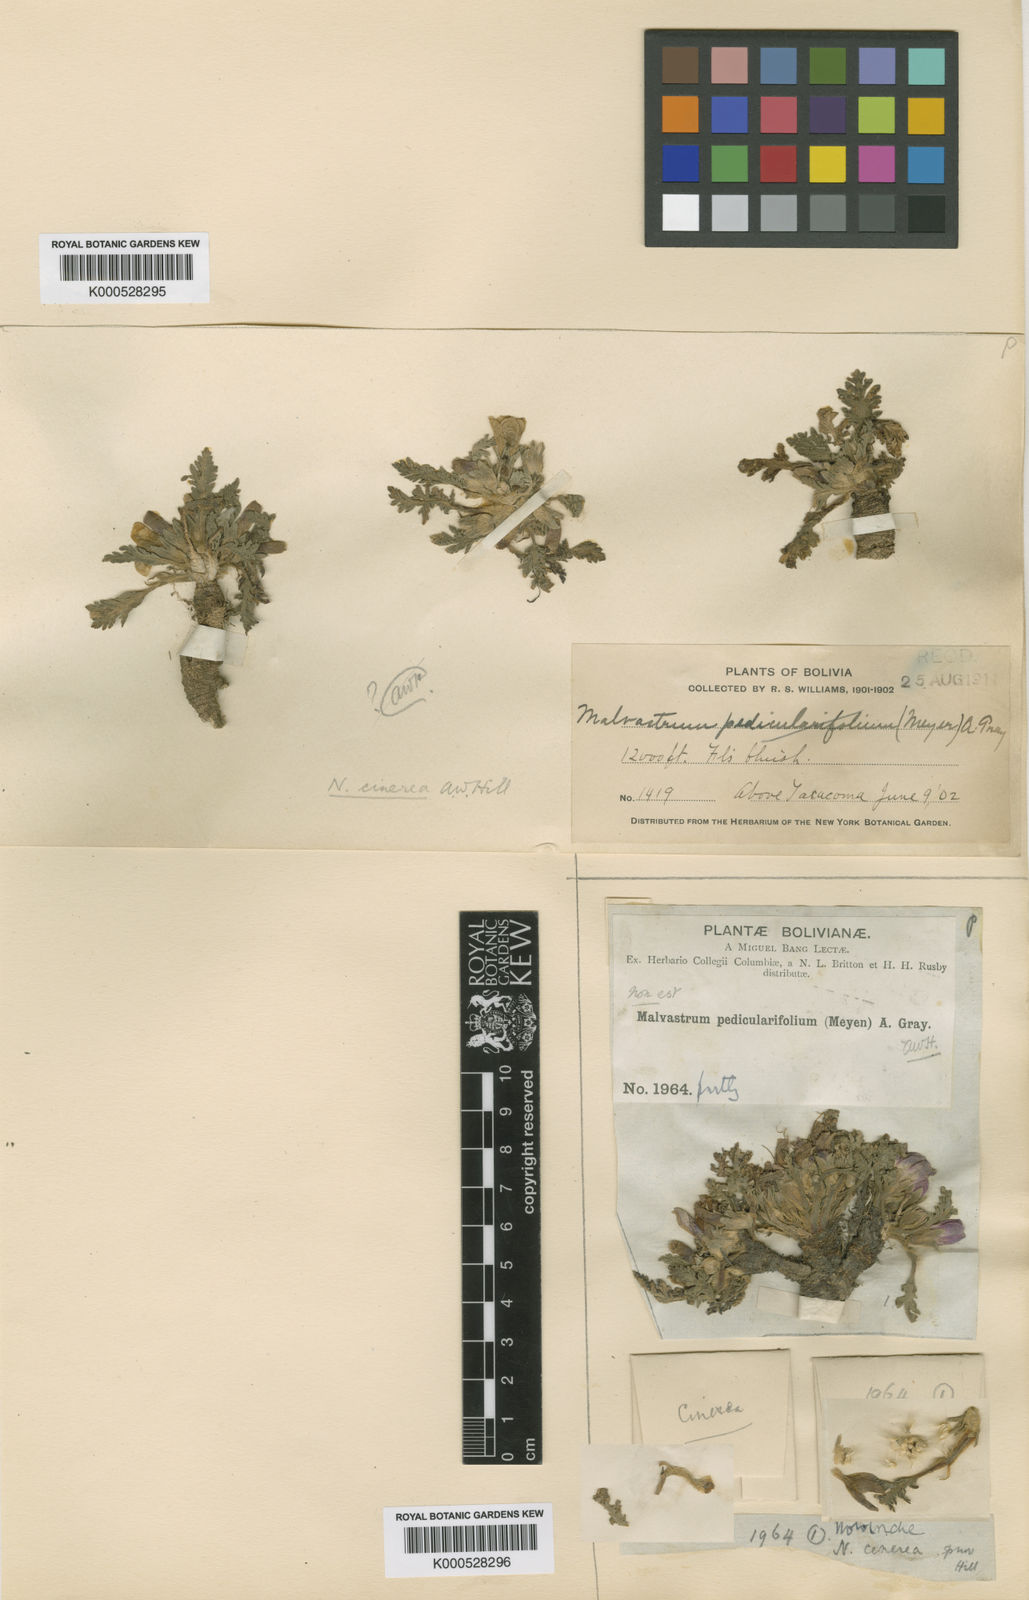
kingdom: Plantae
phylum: Tracheophyta
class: Magnoliopsida
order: Malvales
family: Malvaceae
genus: Nototriche
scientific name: Nototriche cinerea
